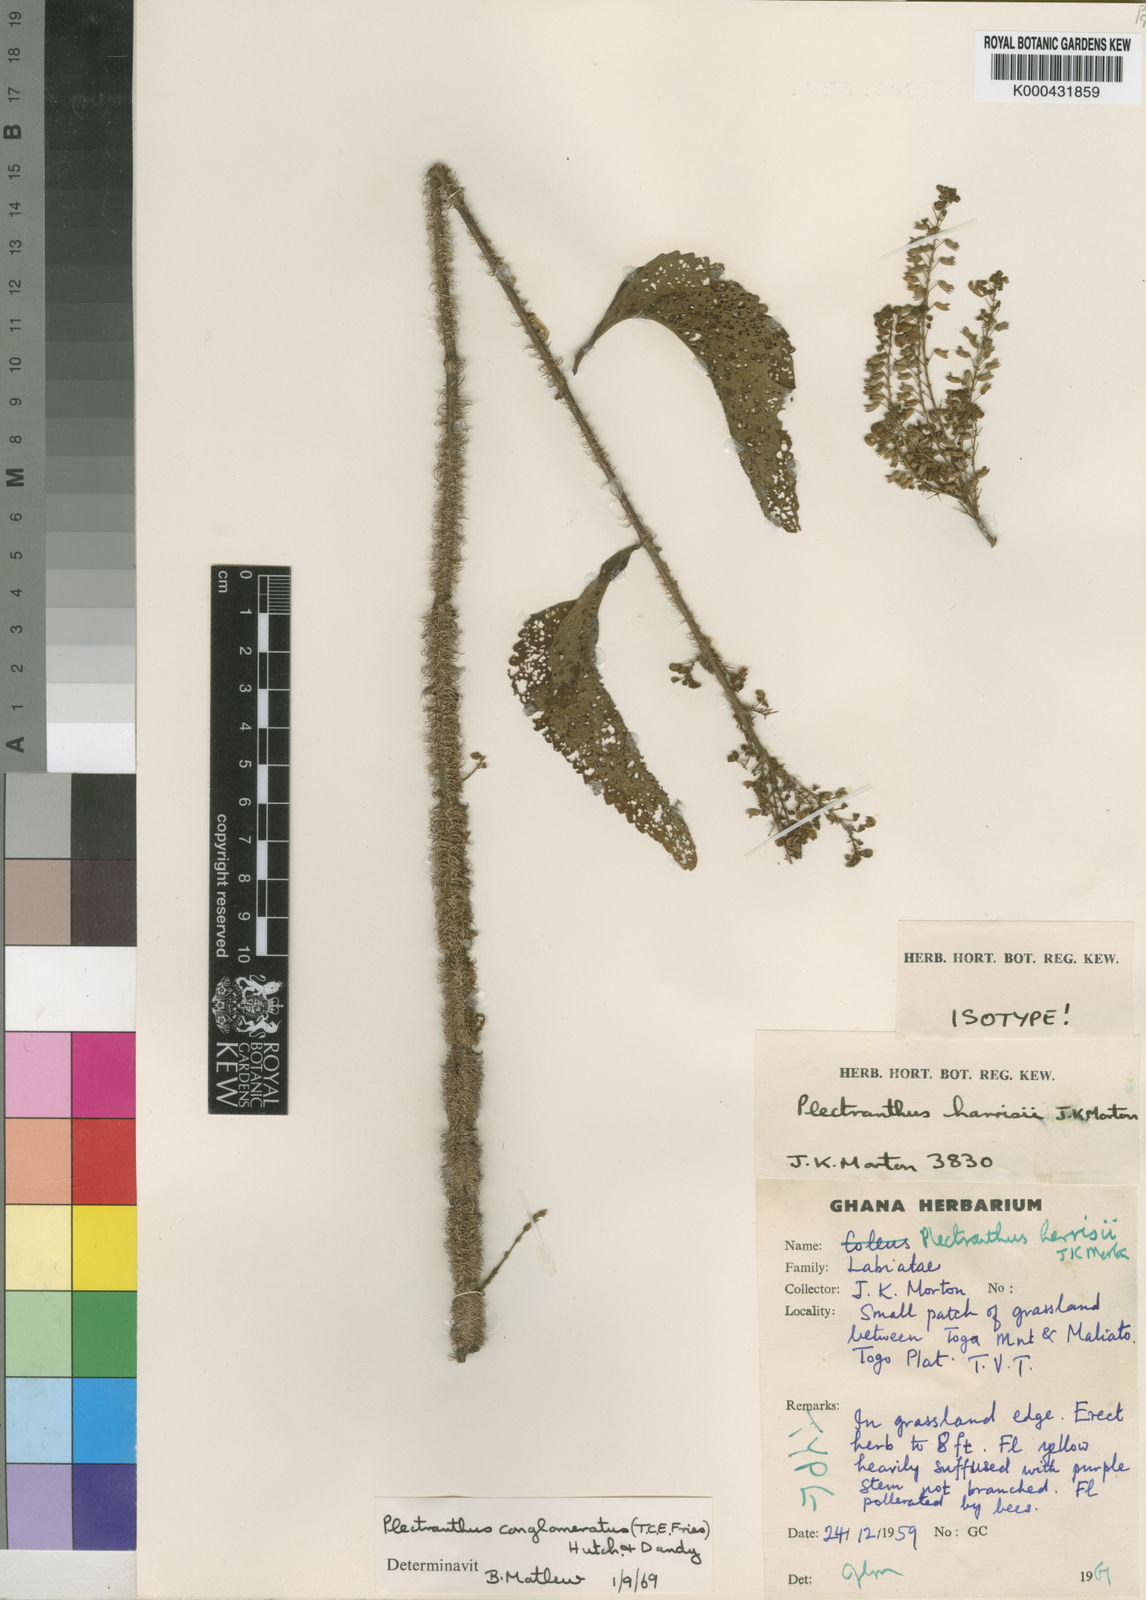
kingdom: Plantae
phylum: Tracheophyta
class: Magnoliopsida
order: Lamiales
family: Lamiaceae
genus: Coleus
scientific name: Coleus conglomeratus
